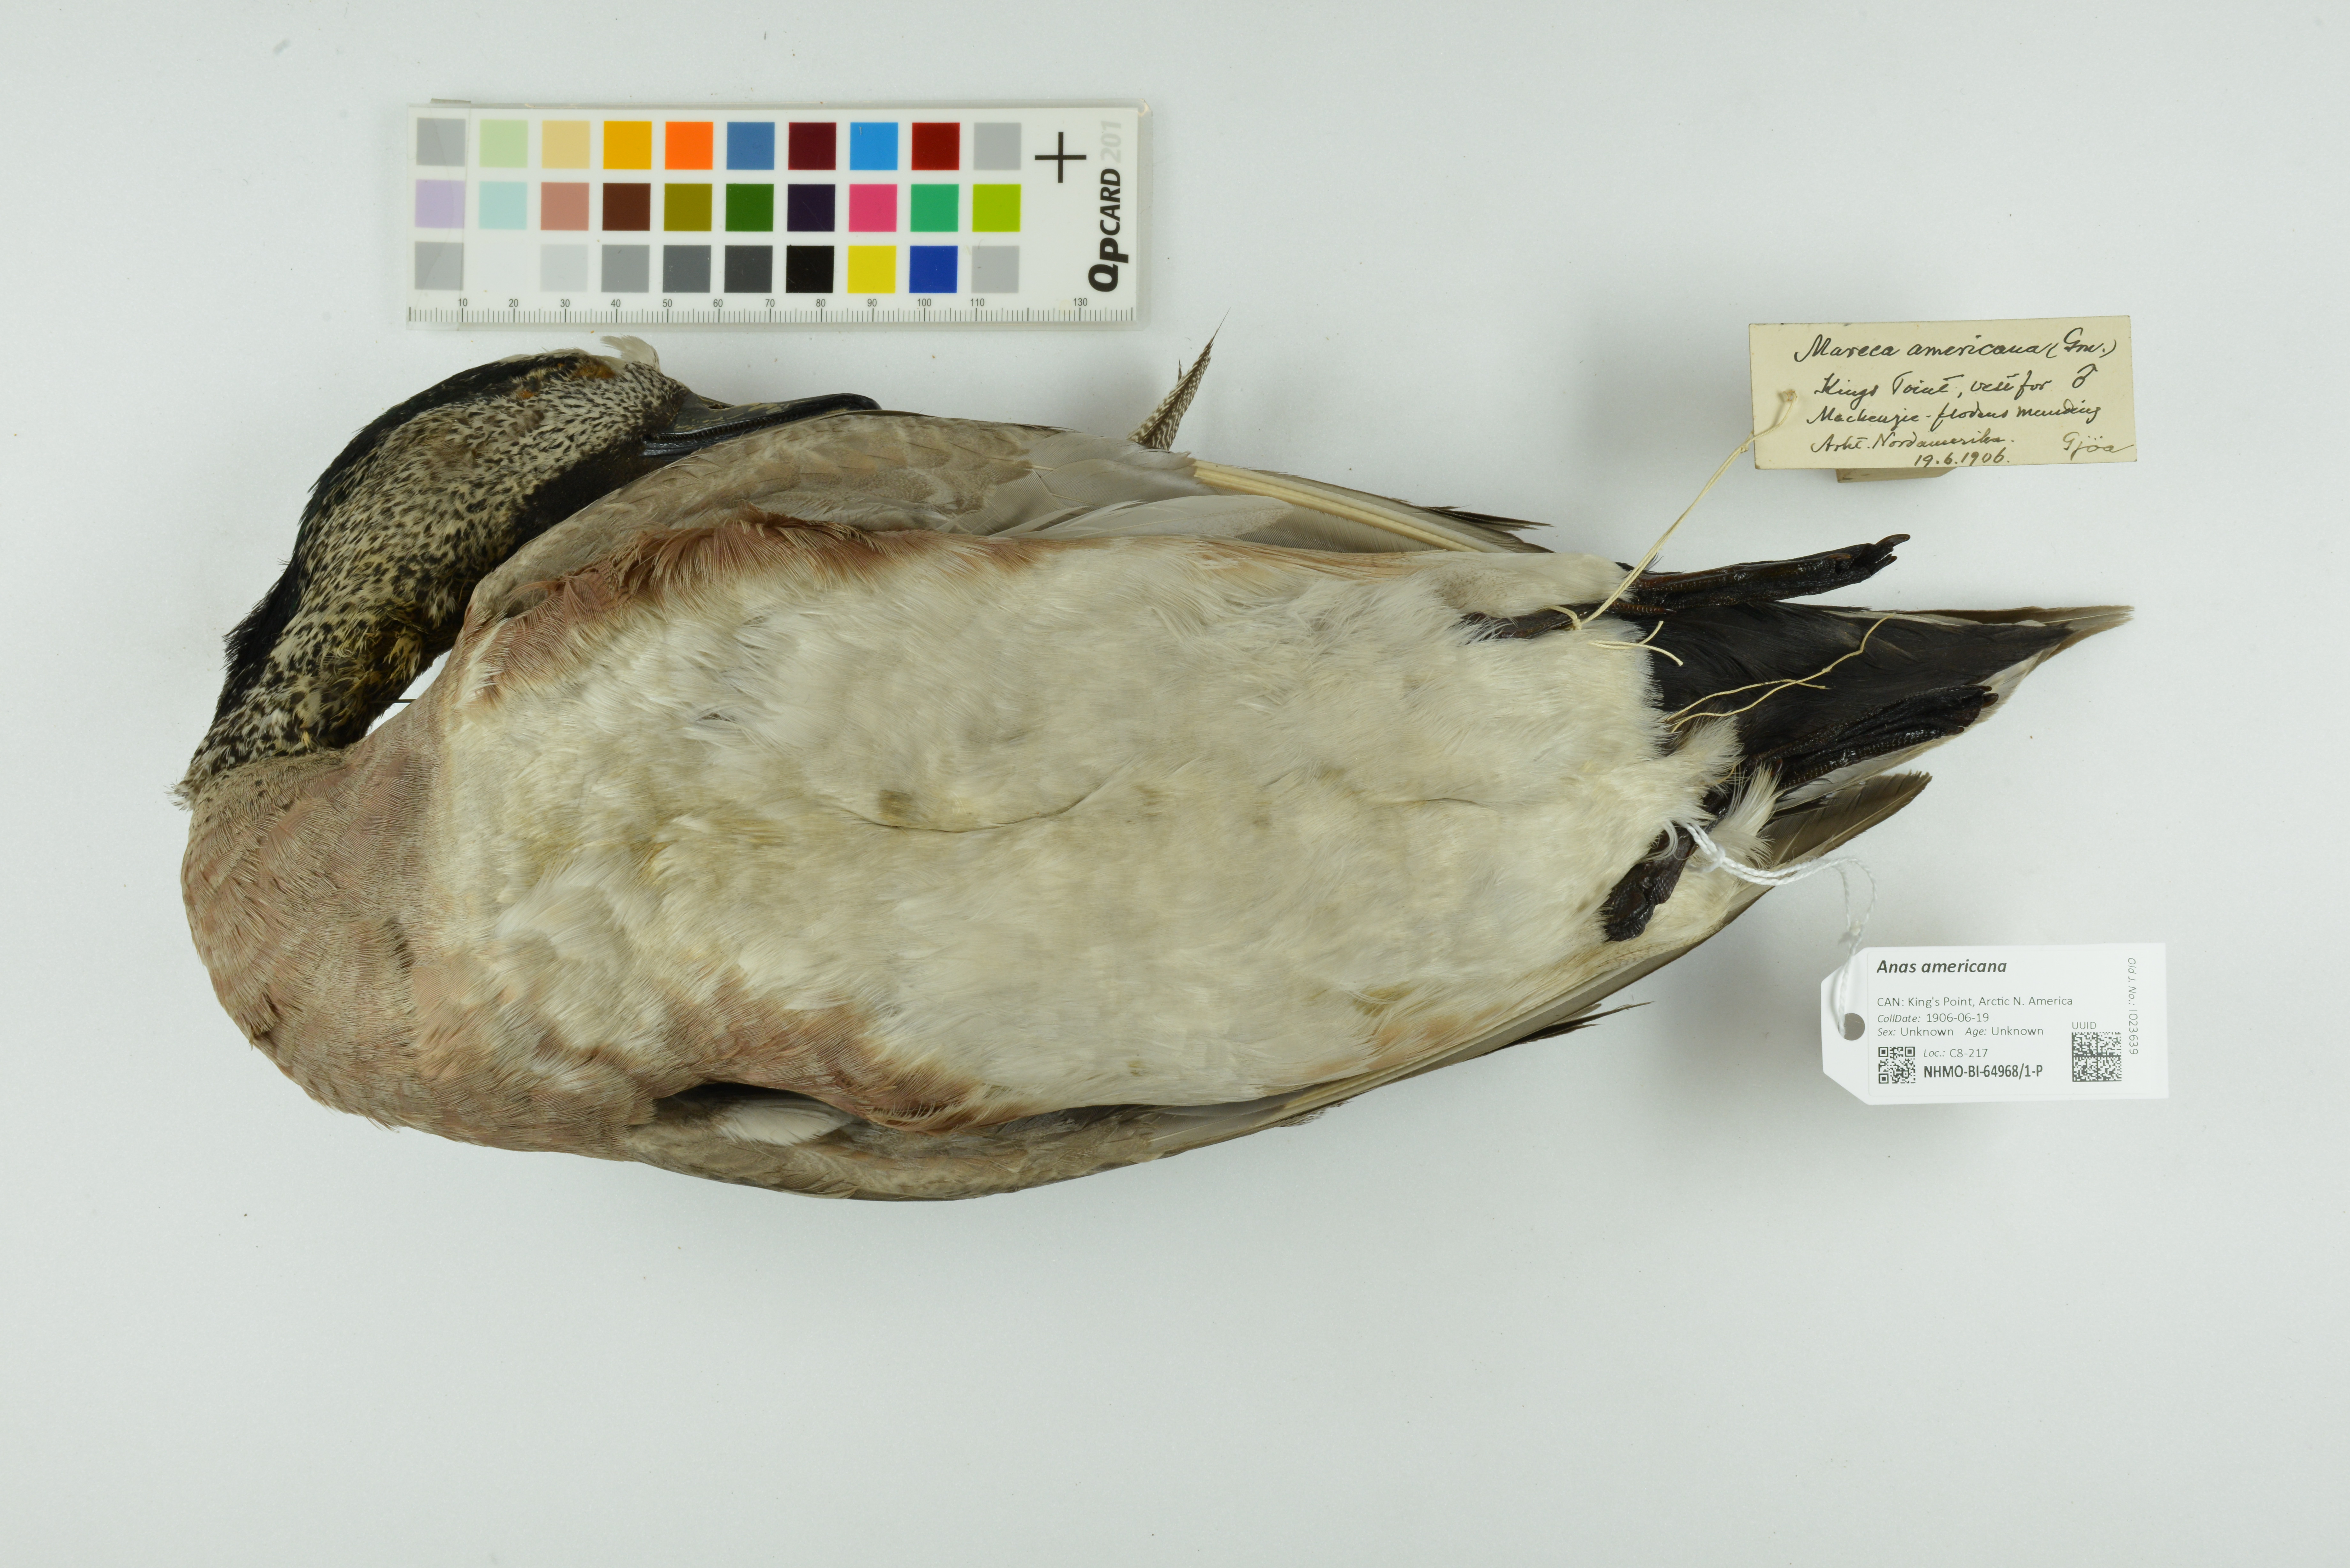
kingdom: Animalia
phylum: Chordata
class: Aves
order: Anseriformes
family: Anatidae
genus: Mareca
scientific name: Mareca americana
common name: American wigeon
